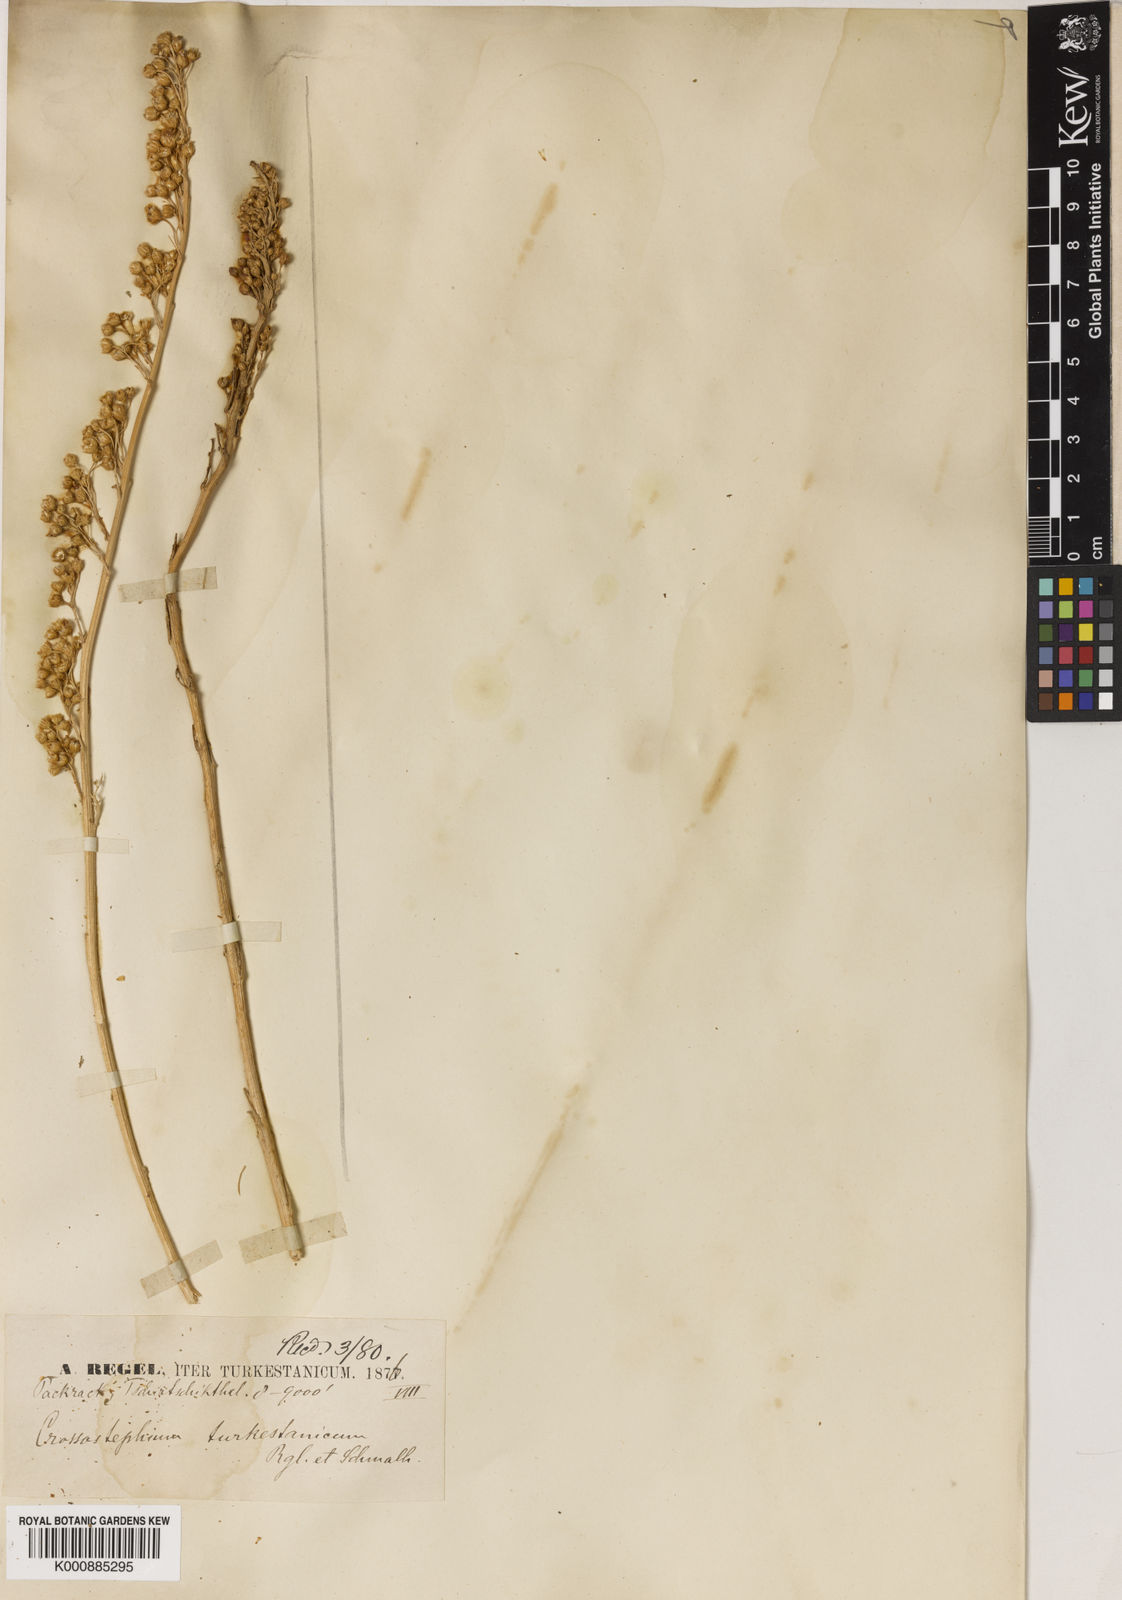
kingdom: Plantae
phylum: Tracheophyta
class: Magnoliopsida
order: Asterales
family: Asteraceae
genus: Lepidolopsis
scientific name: Lepidolopsis turkestanica
